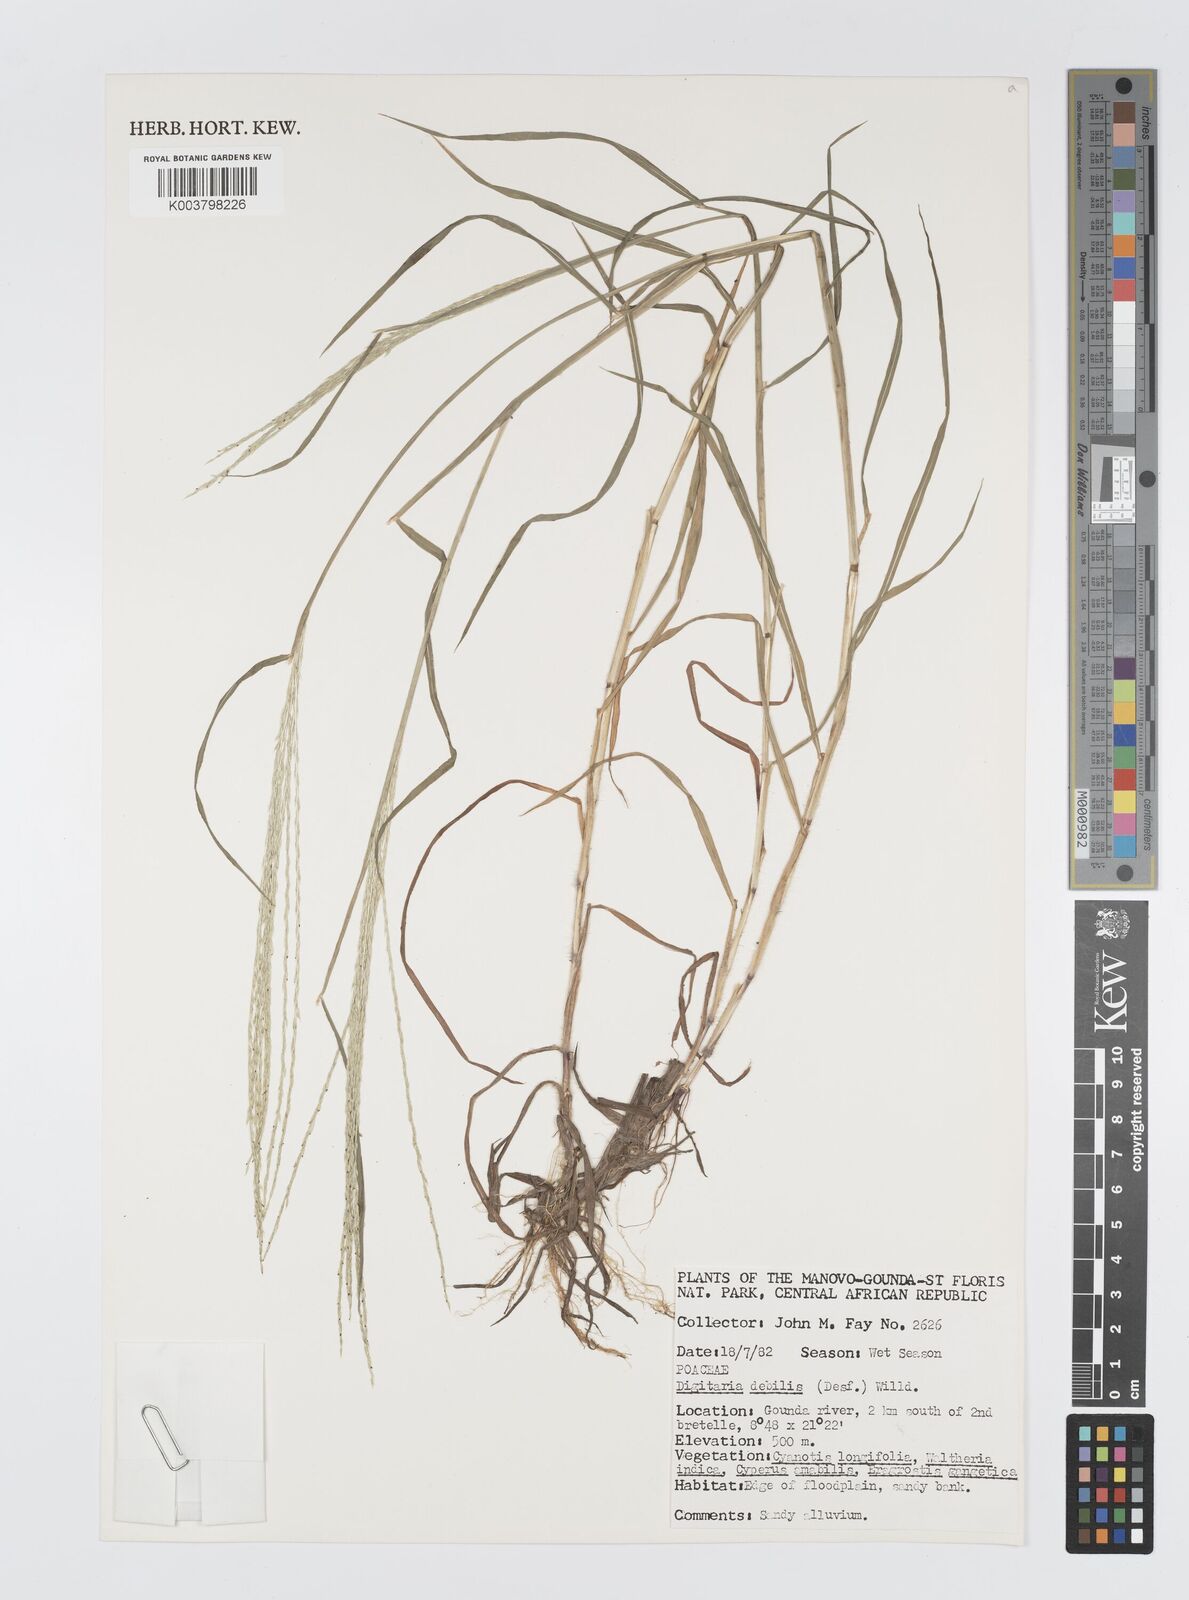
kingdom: Plantae
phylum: Tracheophyta
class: Liliopsida
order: Poales
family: Poaceae
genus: Digitaria
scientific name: Digitaria debilis
